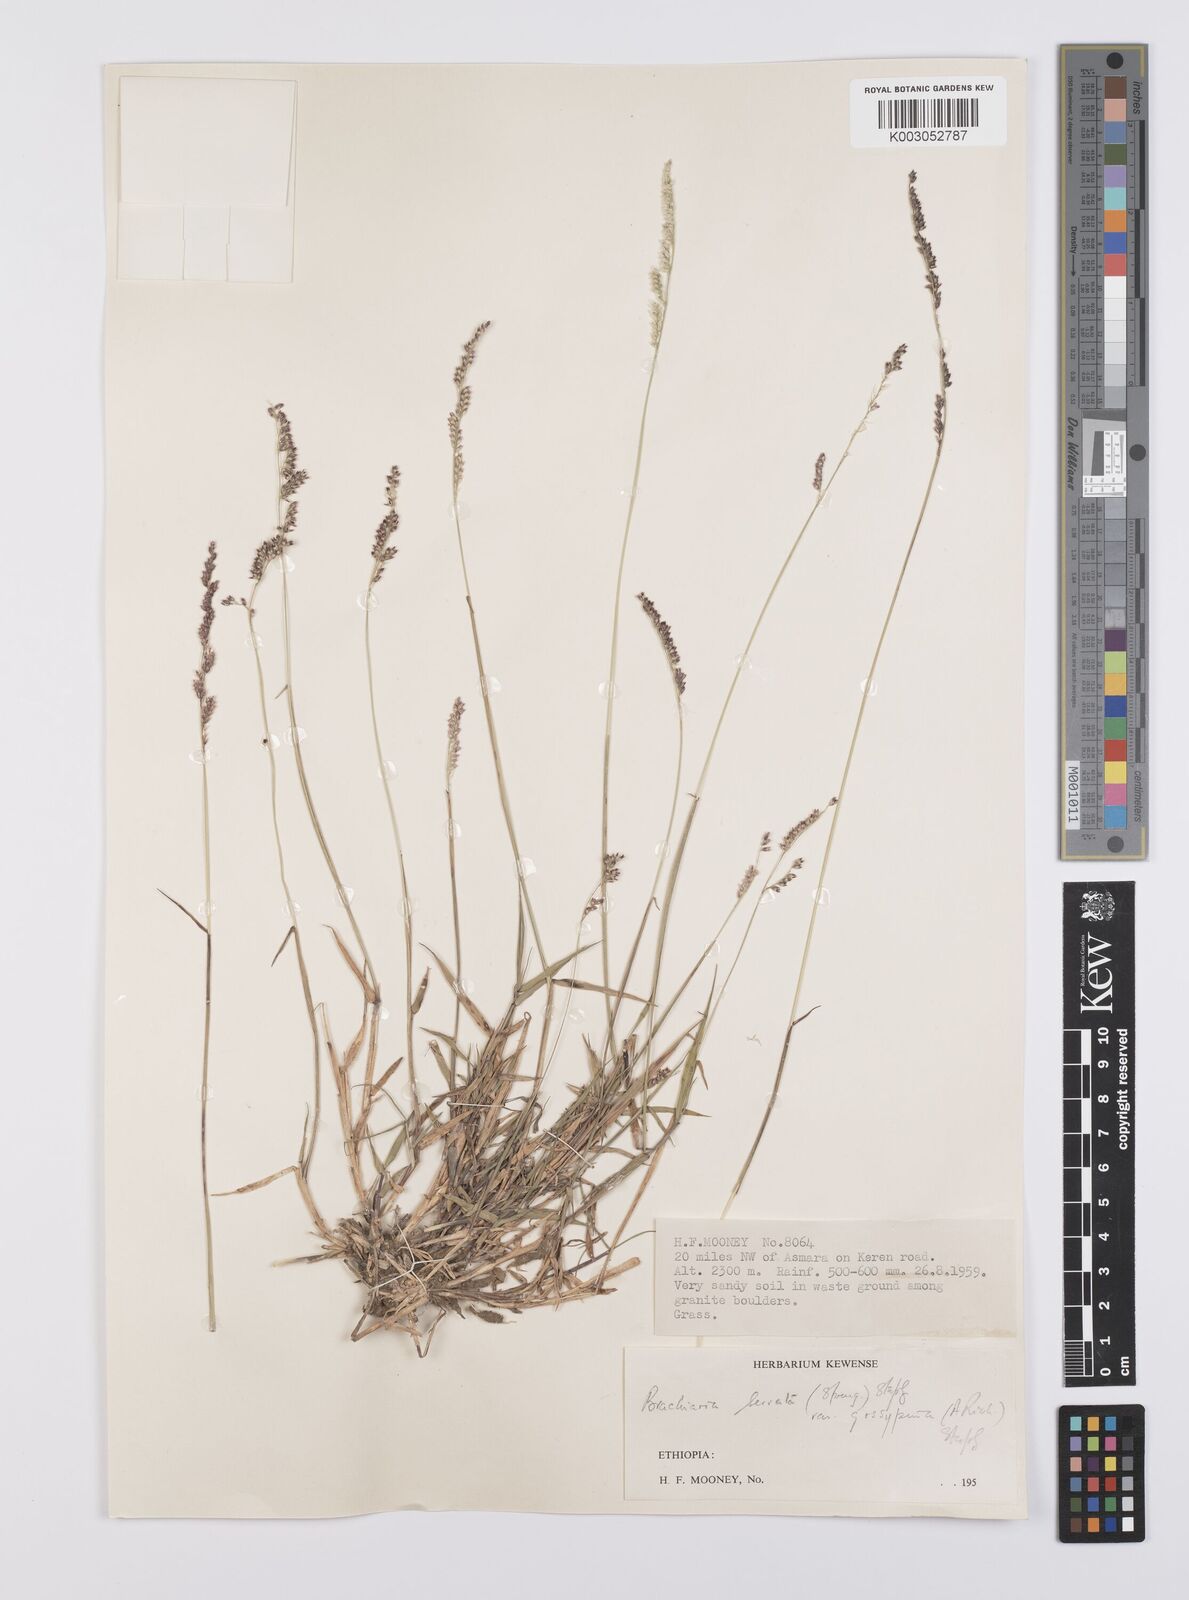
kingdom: Plantae
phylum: Tracheophyta
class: Liliopsida
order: Poales
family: Poaceae
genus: Urochloa
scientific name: Urochloa serrata
